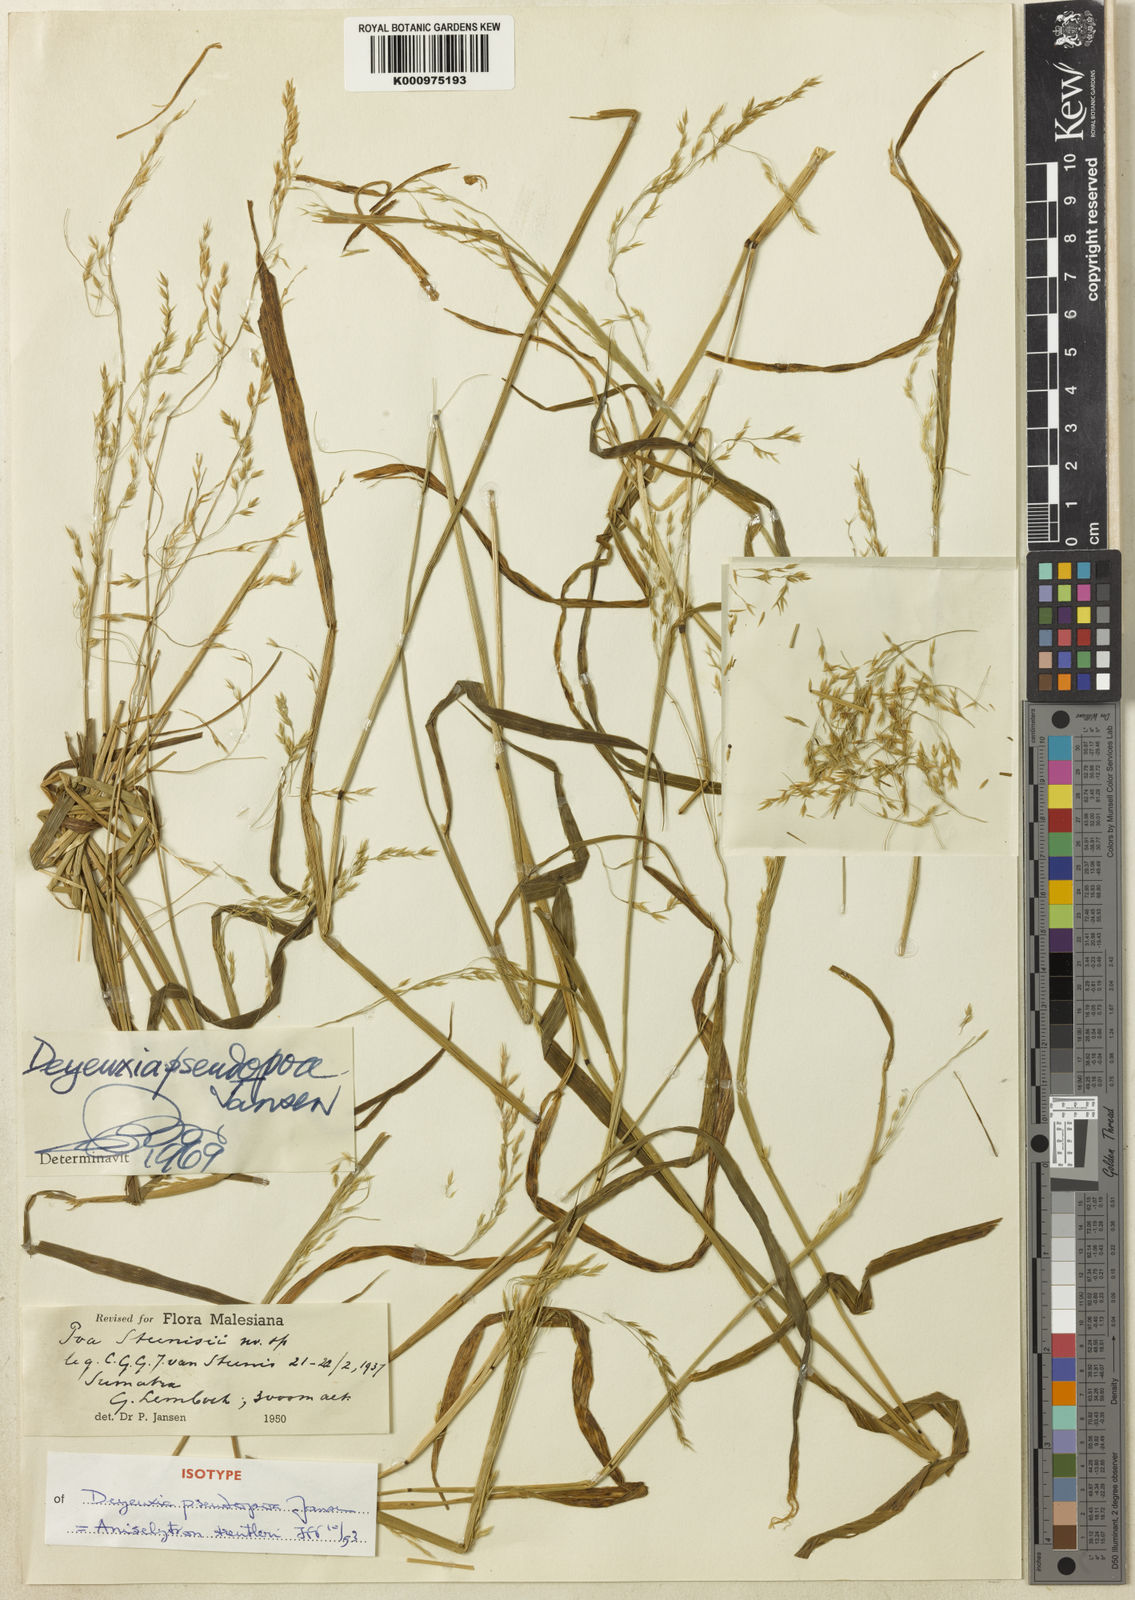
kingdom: Plantae
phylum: Tracheophyta
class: Liliopsida
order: Poales
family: Poaceae
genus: Aniselytron
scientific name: Aniselytron
